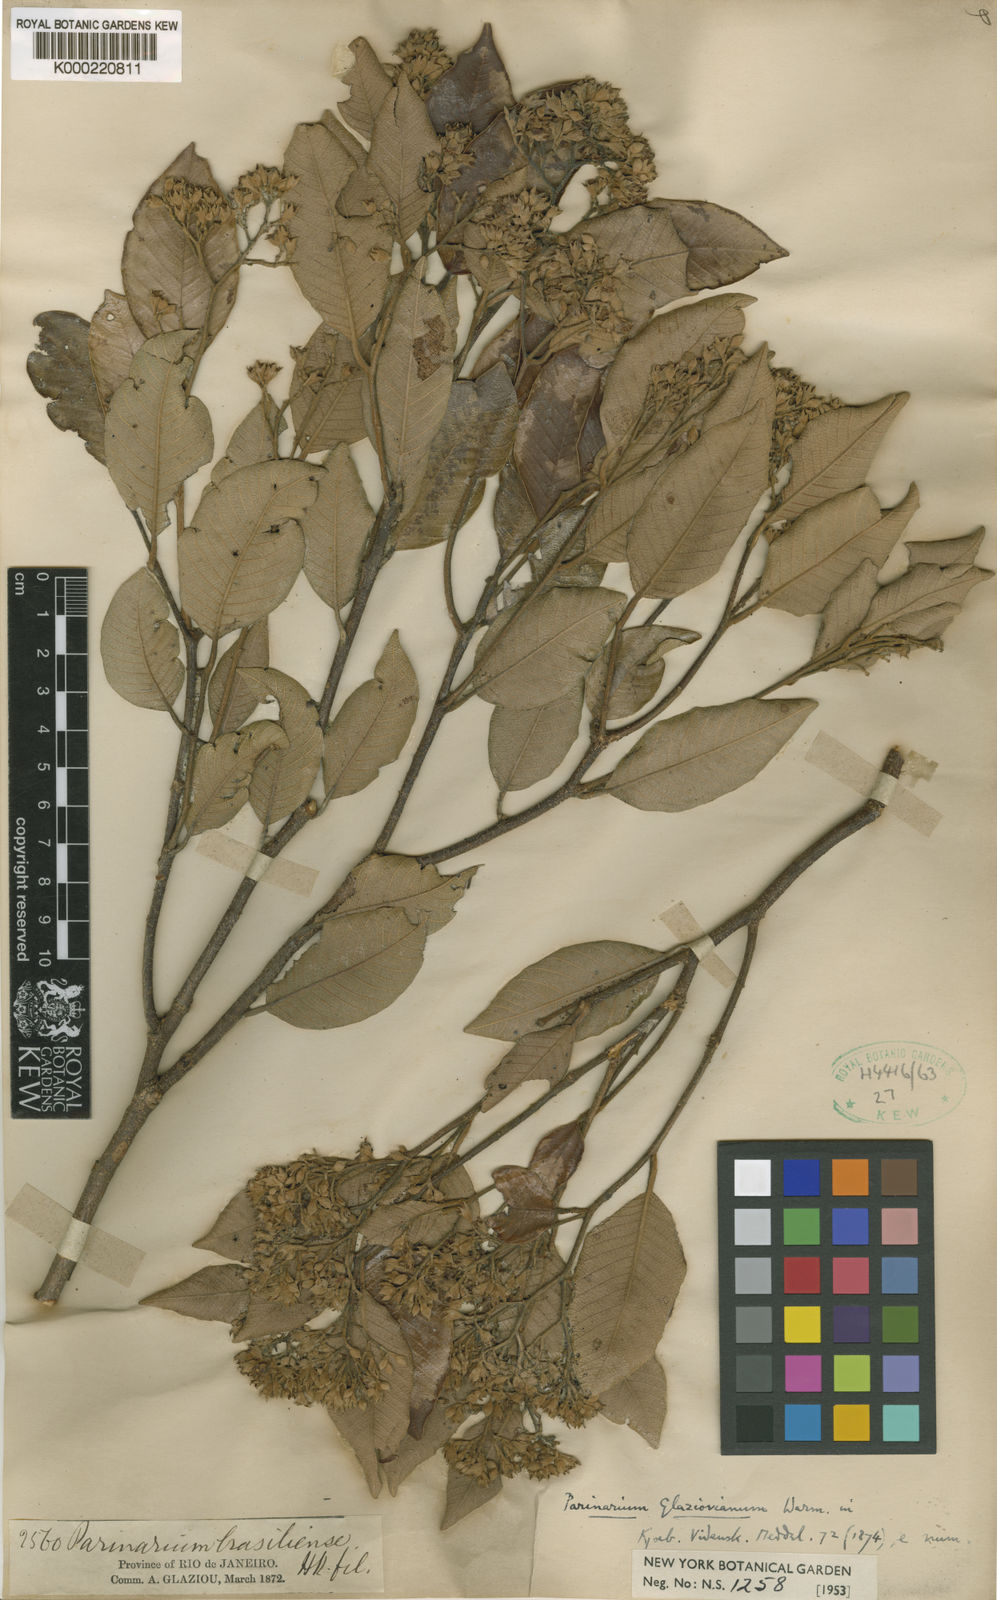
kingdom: Plantae
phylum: Tracheophyta
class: Magnoliopsida
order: Malpighiales
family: Chrysobalanaceae
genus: Parinari
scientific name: Parinari excelsa
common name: Guinea-plum
